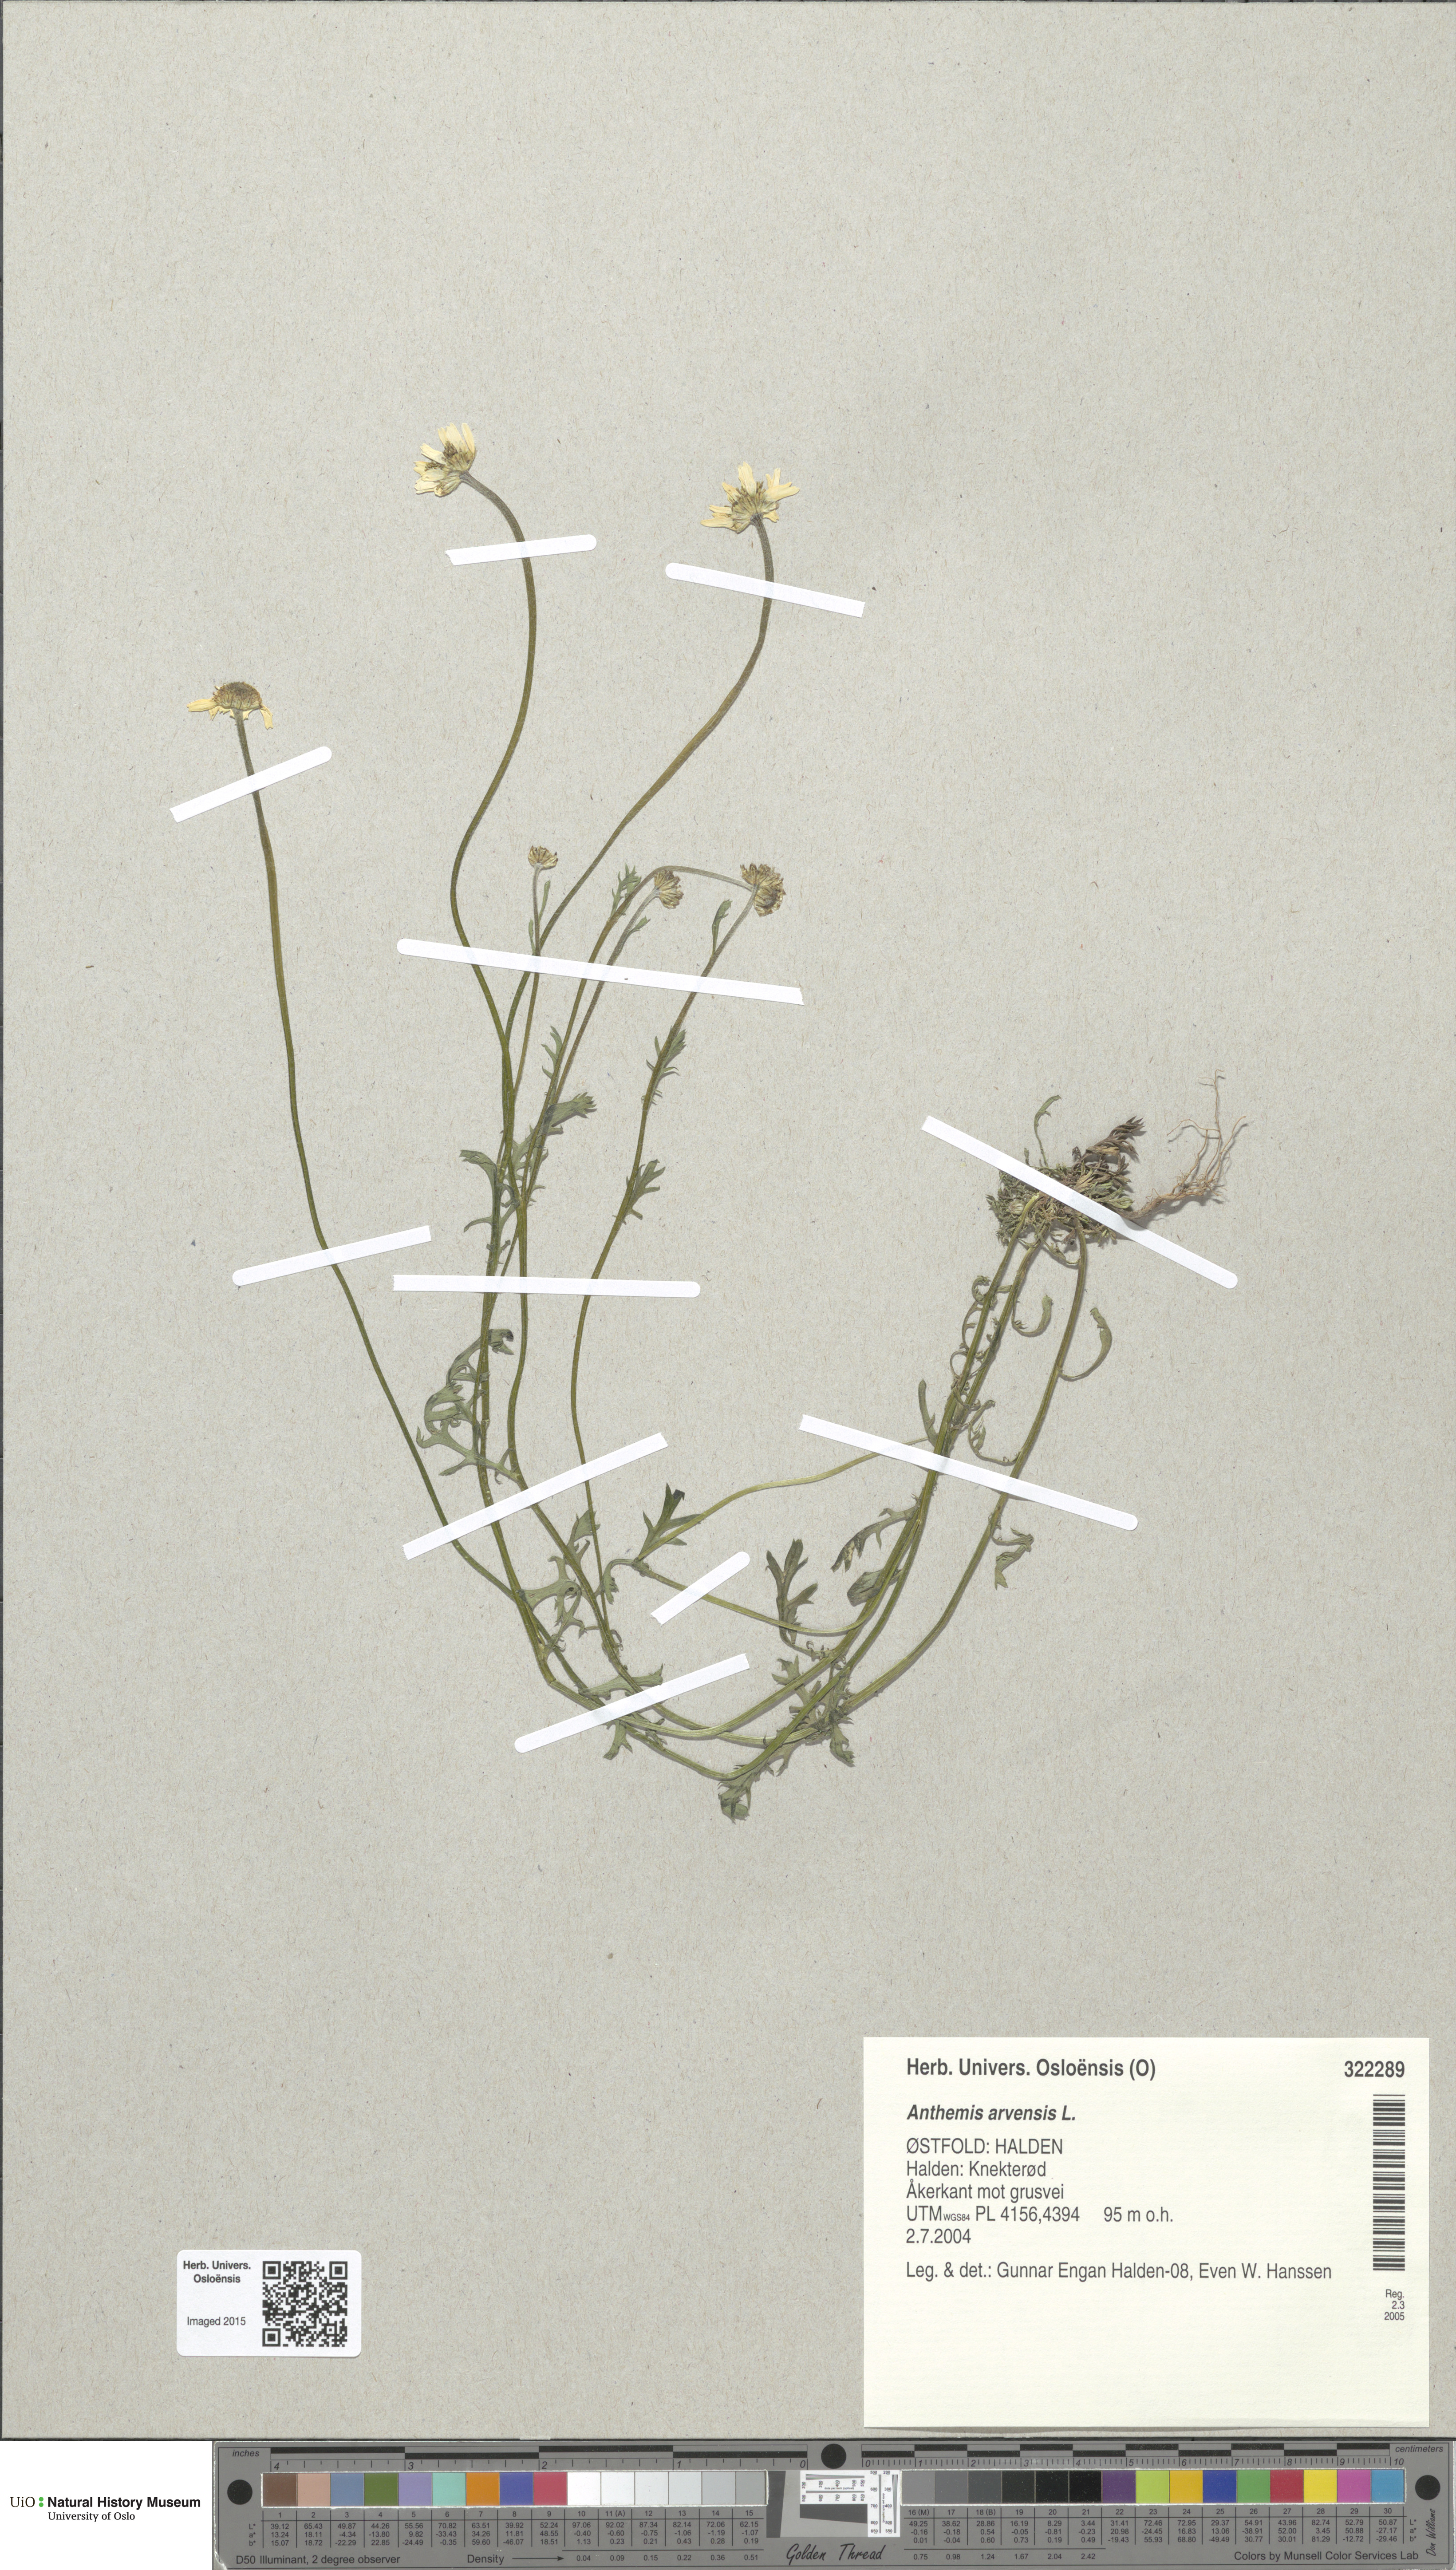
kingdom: Plantae
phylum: Tracheophyta
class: Magnoliopsida
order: Asterales
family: Asteraceae
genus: Anthemis
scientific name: Anthemis arvensis
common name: Corn chamomile
